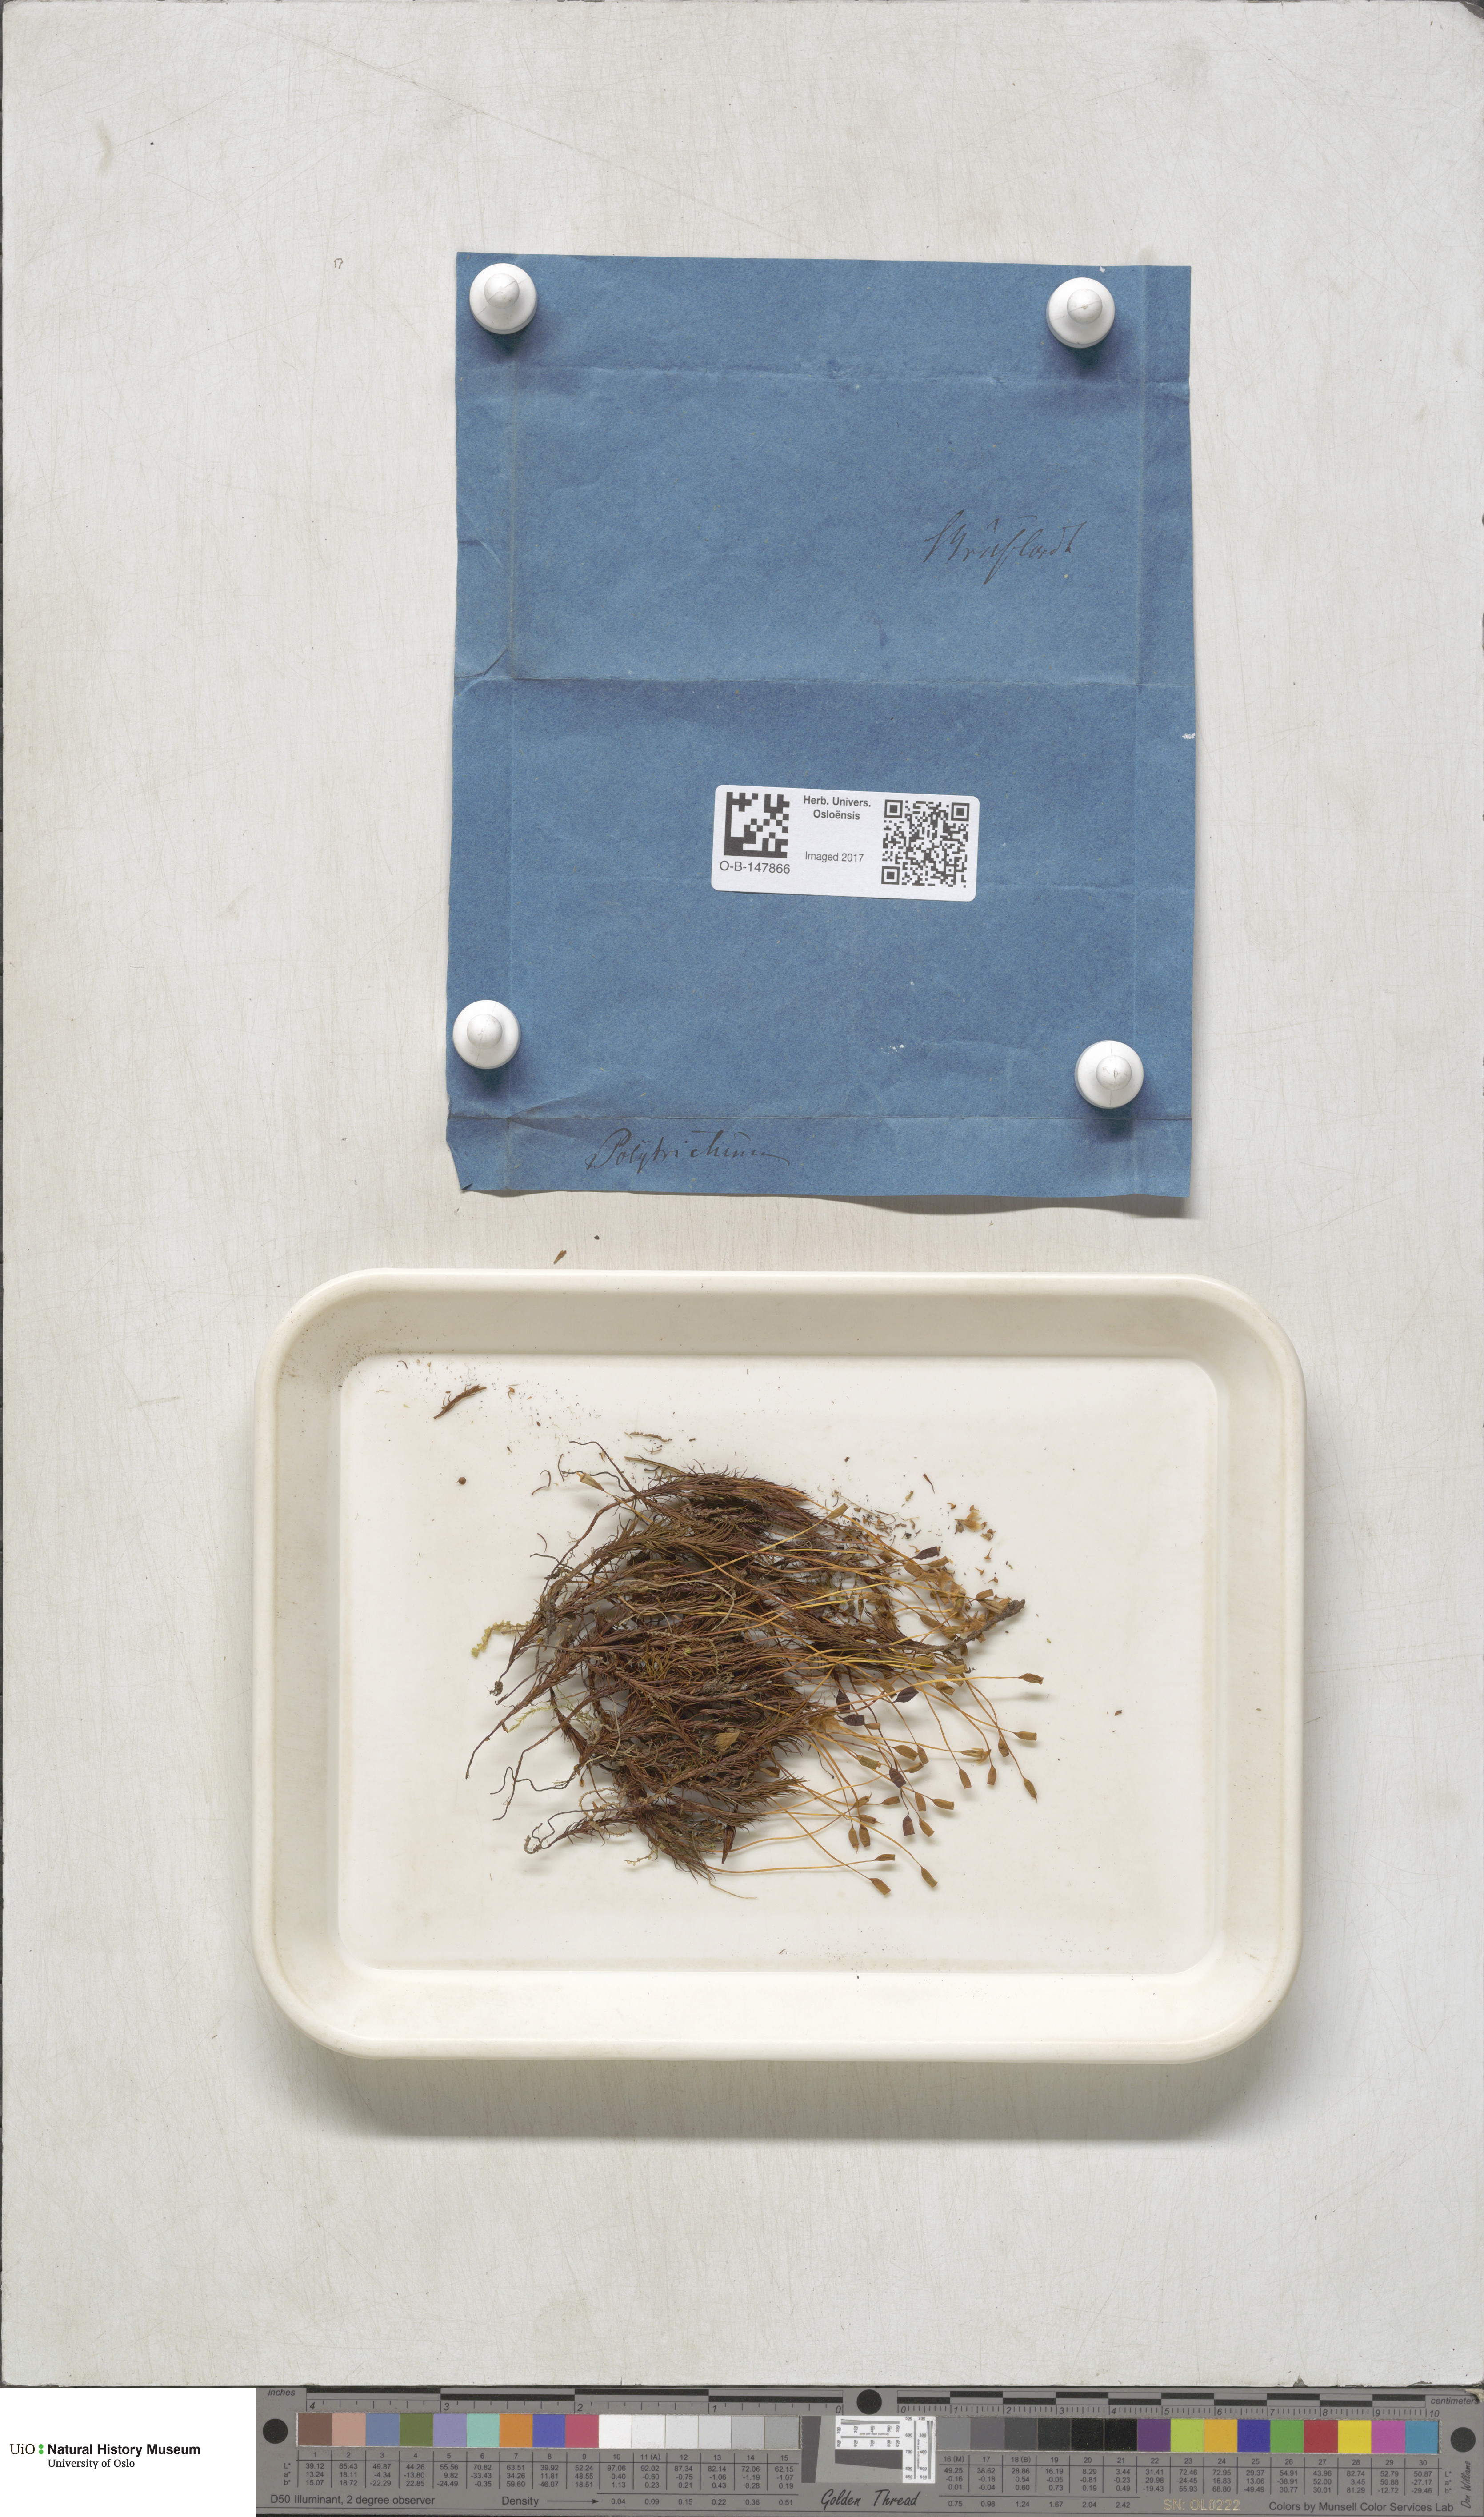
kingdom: Plantae
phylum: Bryophyta
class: Polytrichopsida
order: Polytrichales
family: Polytrichaceae
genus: Polytrichastrum
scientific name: Polytrichastrum alpinum
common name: Alpine haircap
